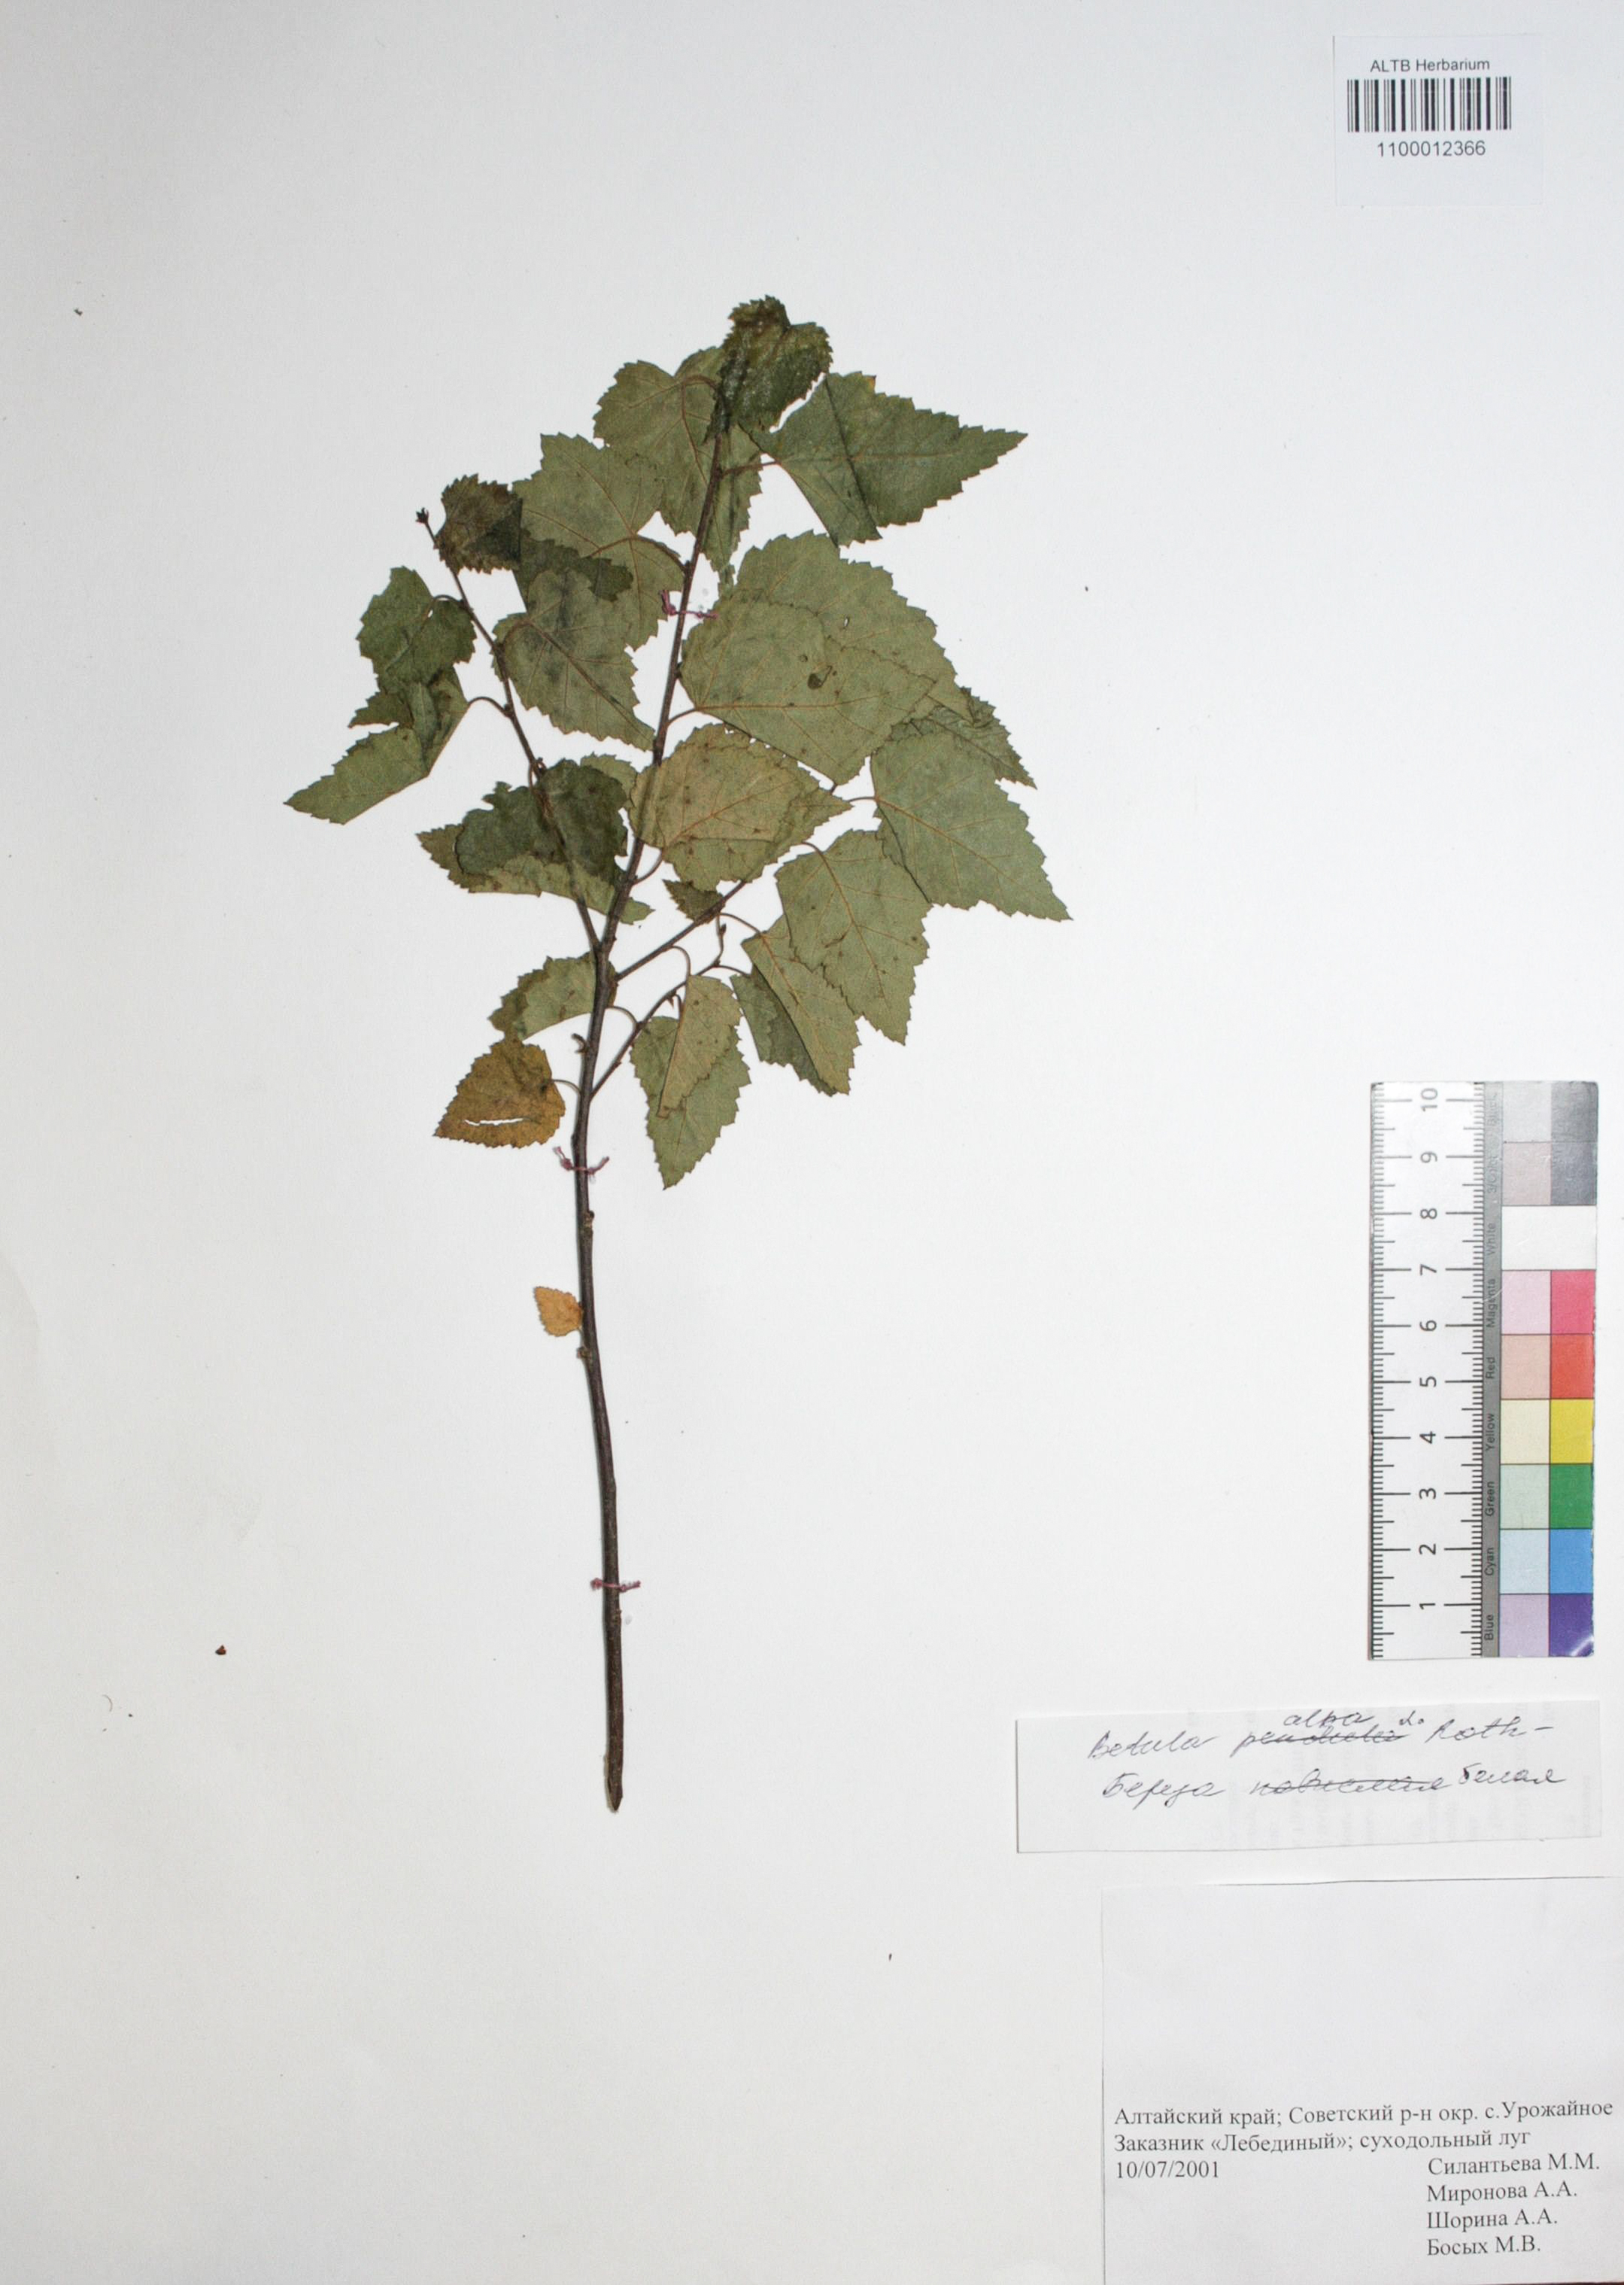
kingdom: Plantae
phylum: Tracheophyta
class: Magnoliopsida
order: Fagales
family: Betulaceae
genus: Betula
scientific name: Betula pubescens
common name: Downy birch
